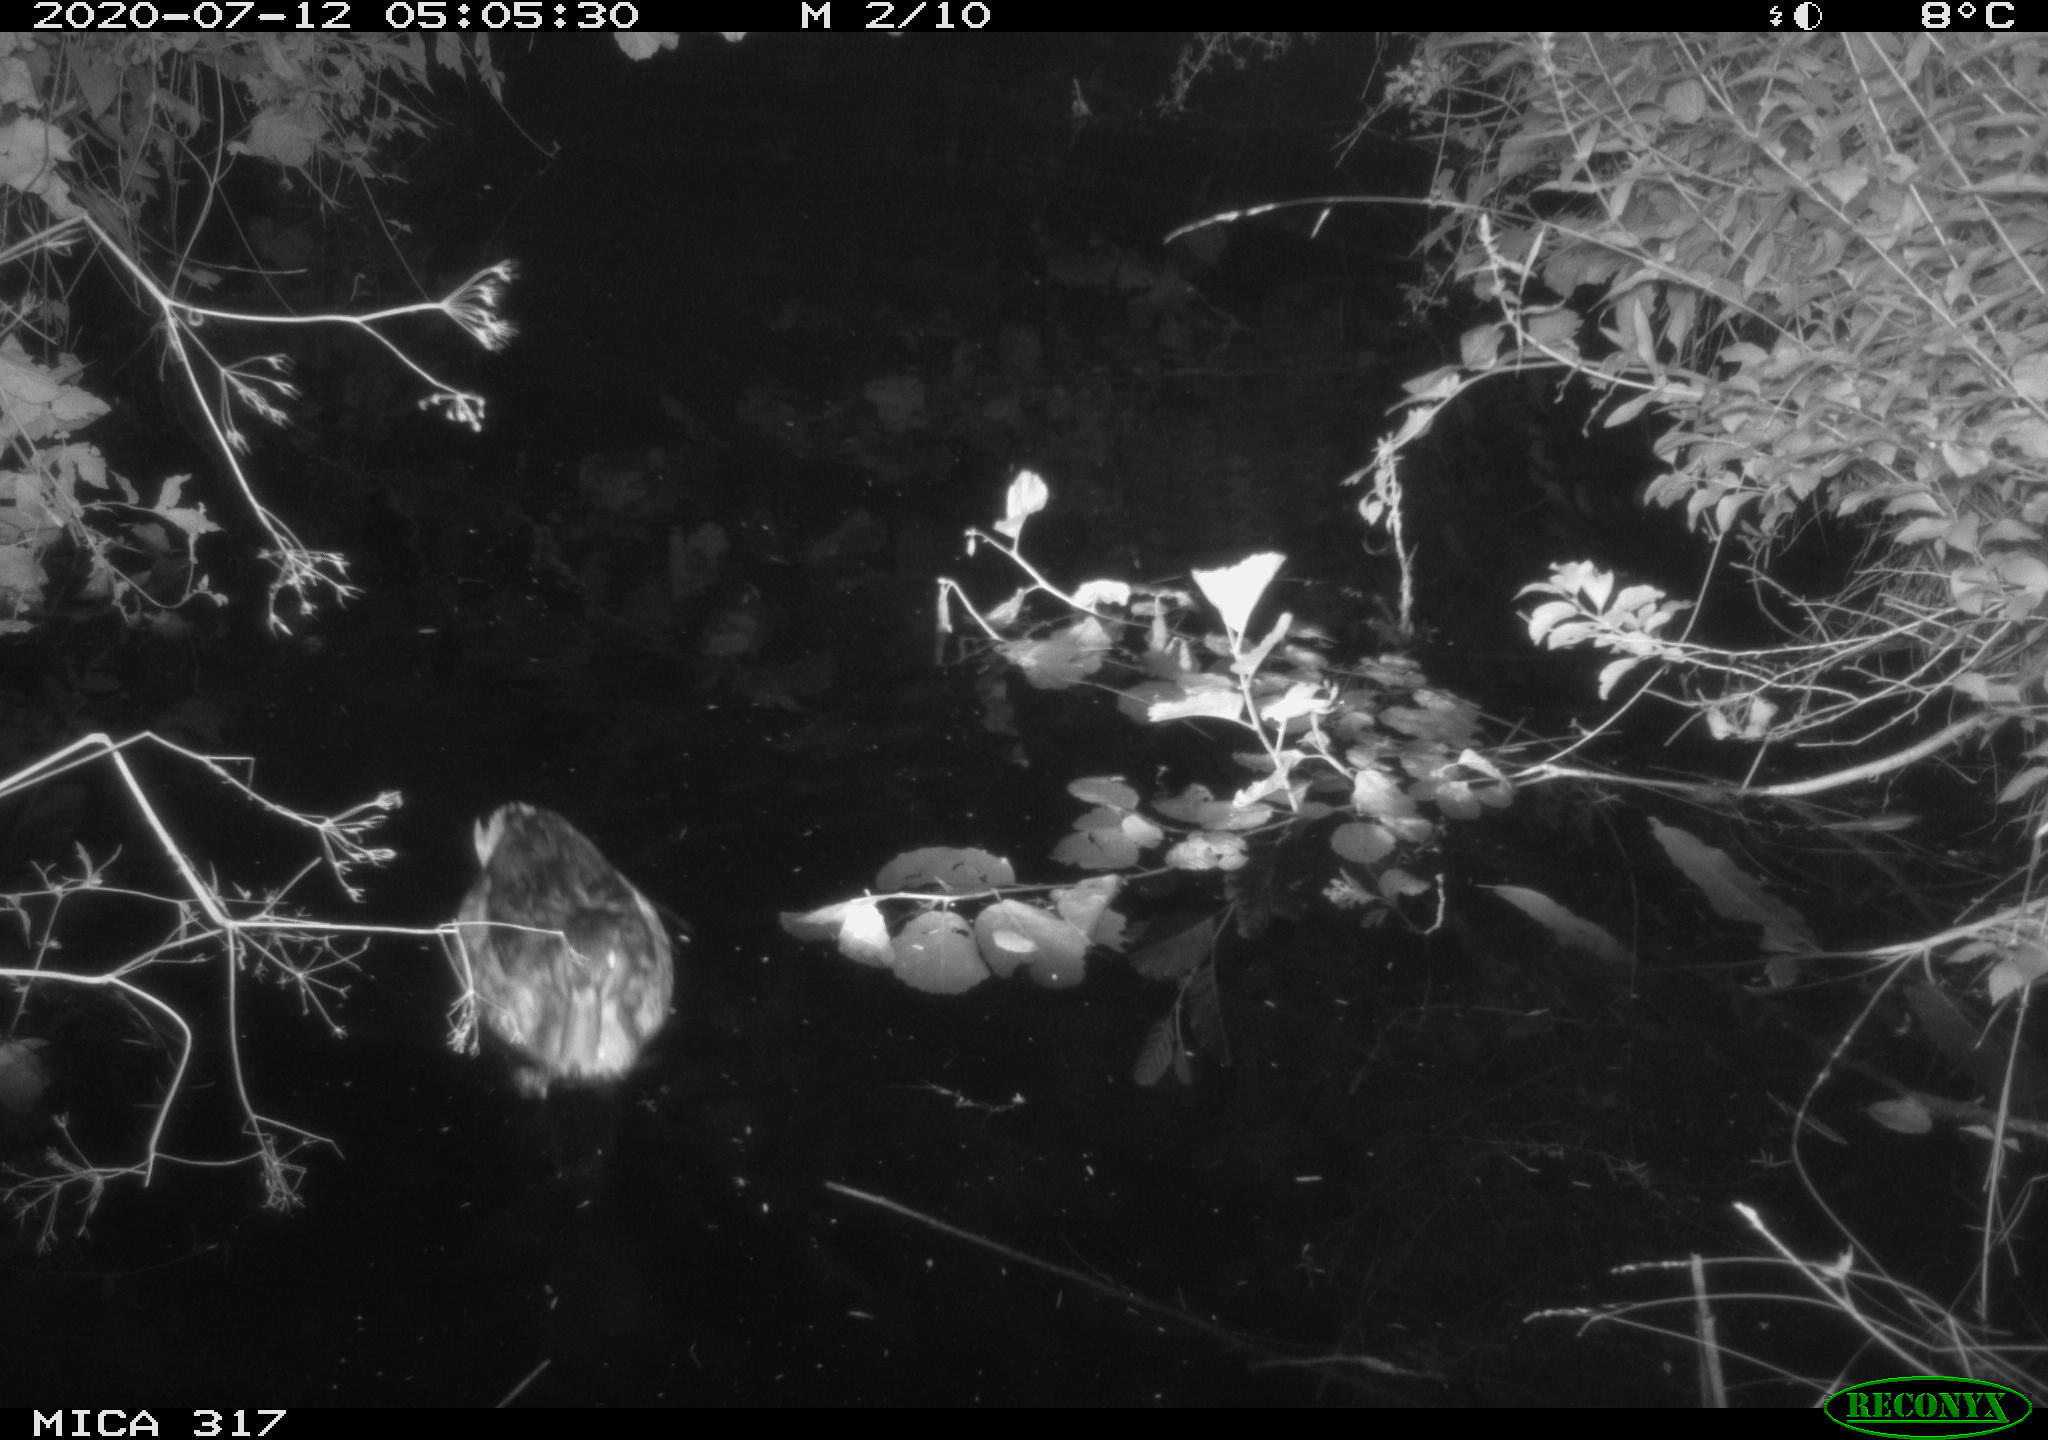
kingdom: Animalia
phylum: Chordata
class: Aves
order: Anseriformes
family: Anatidae
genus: Anas
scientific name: Anas platyrhynchos
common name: Mallard
